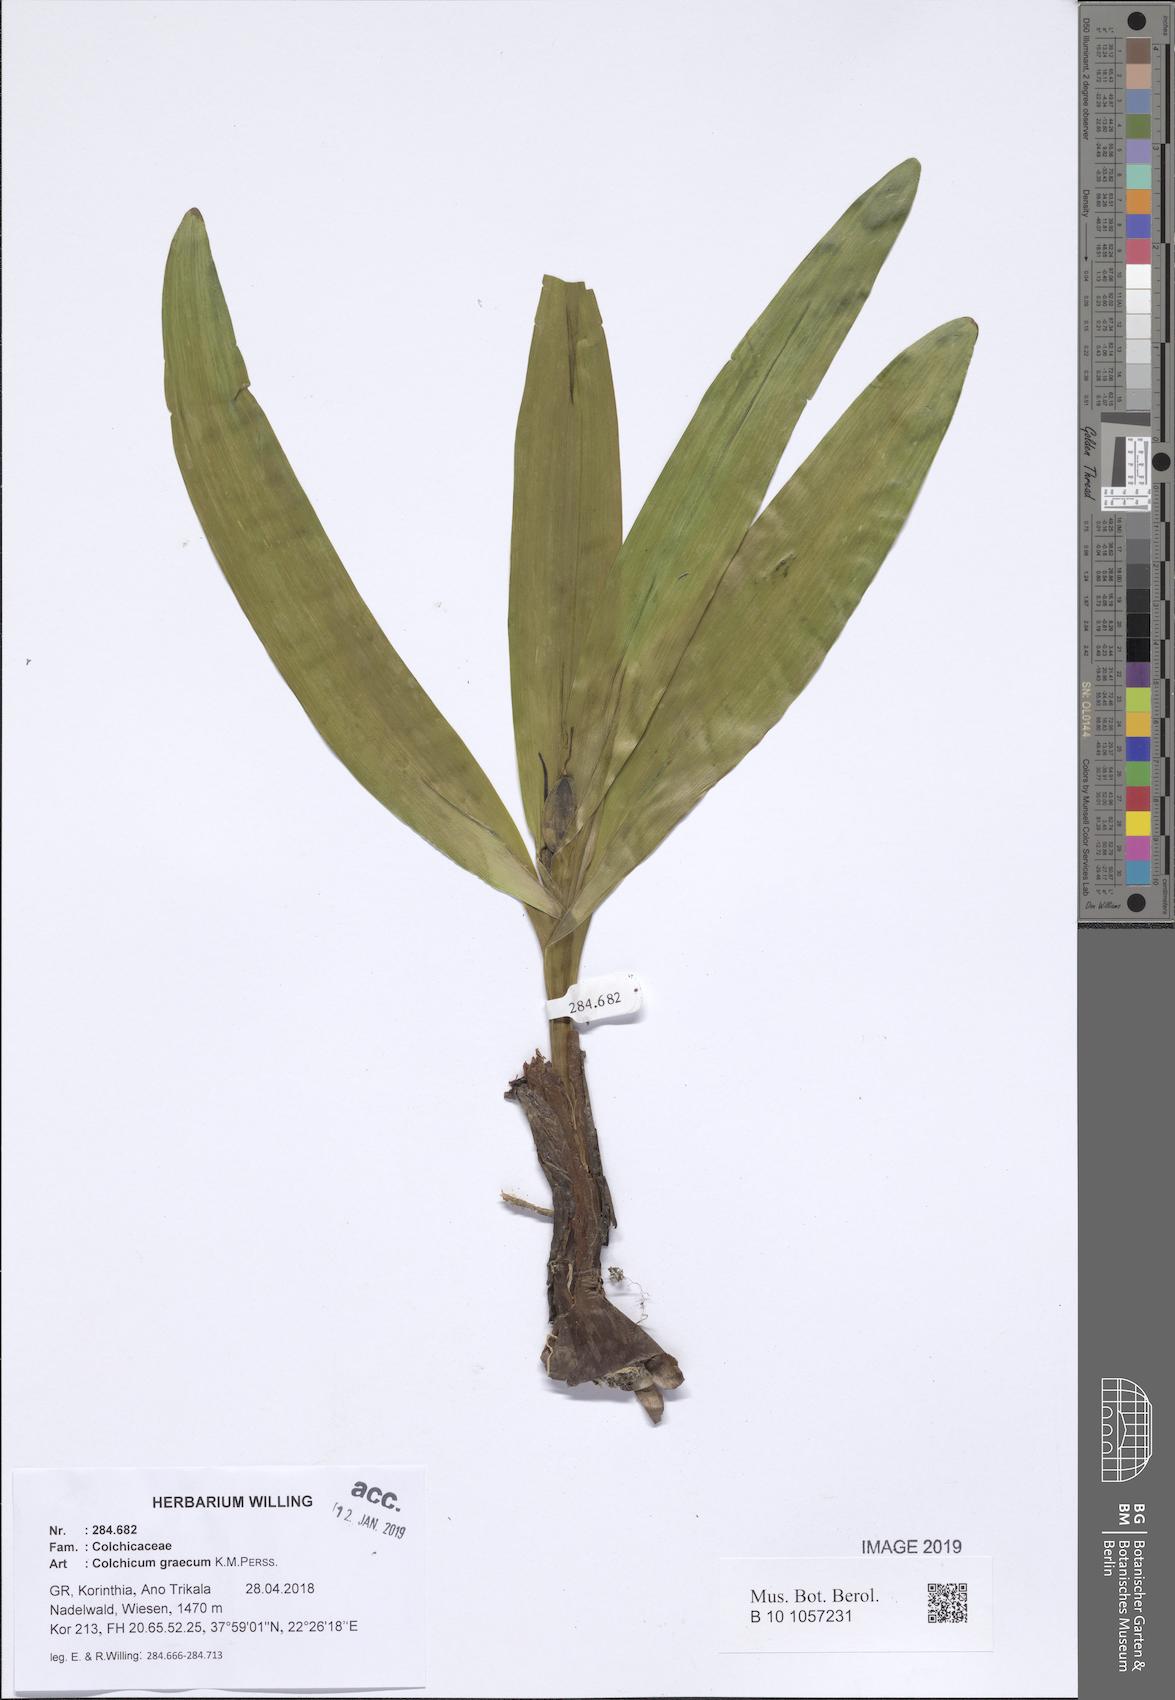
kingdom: Plantae
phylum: Tracheophyta
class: Liliopsida
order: Liliales
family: Colchicaceae
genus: Colchicum
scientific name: Colchicum graecum
